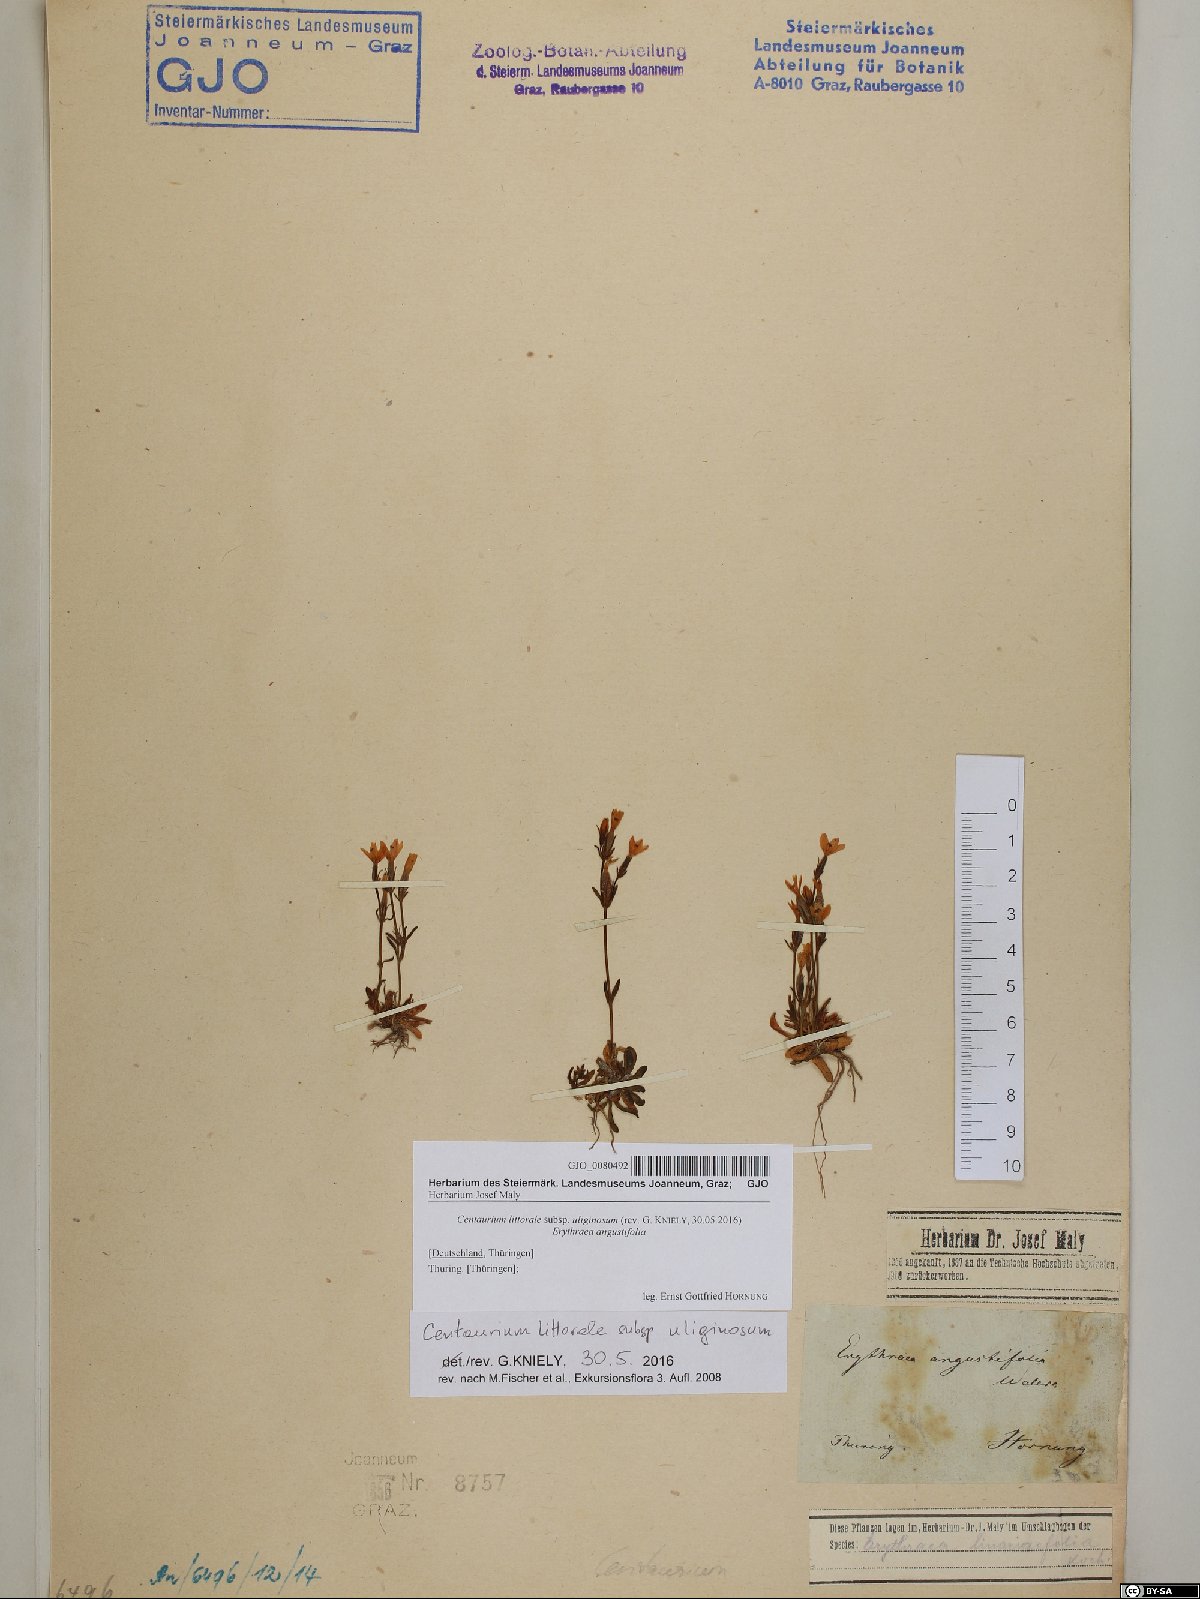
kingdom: Plantae
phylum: Tracheophyta
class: Magnoliopsida
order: Gentianales
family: Gentianaceae
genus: Centaurium
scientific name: Centaurium littorale
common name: Seaside centaury
